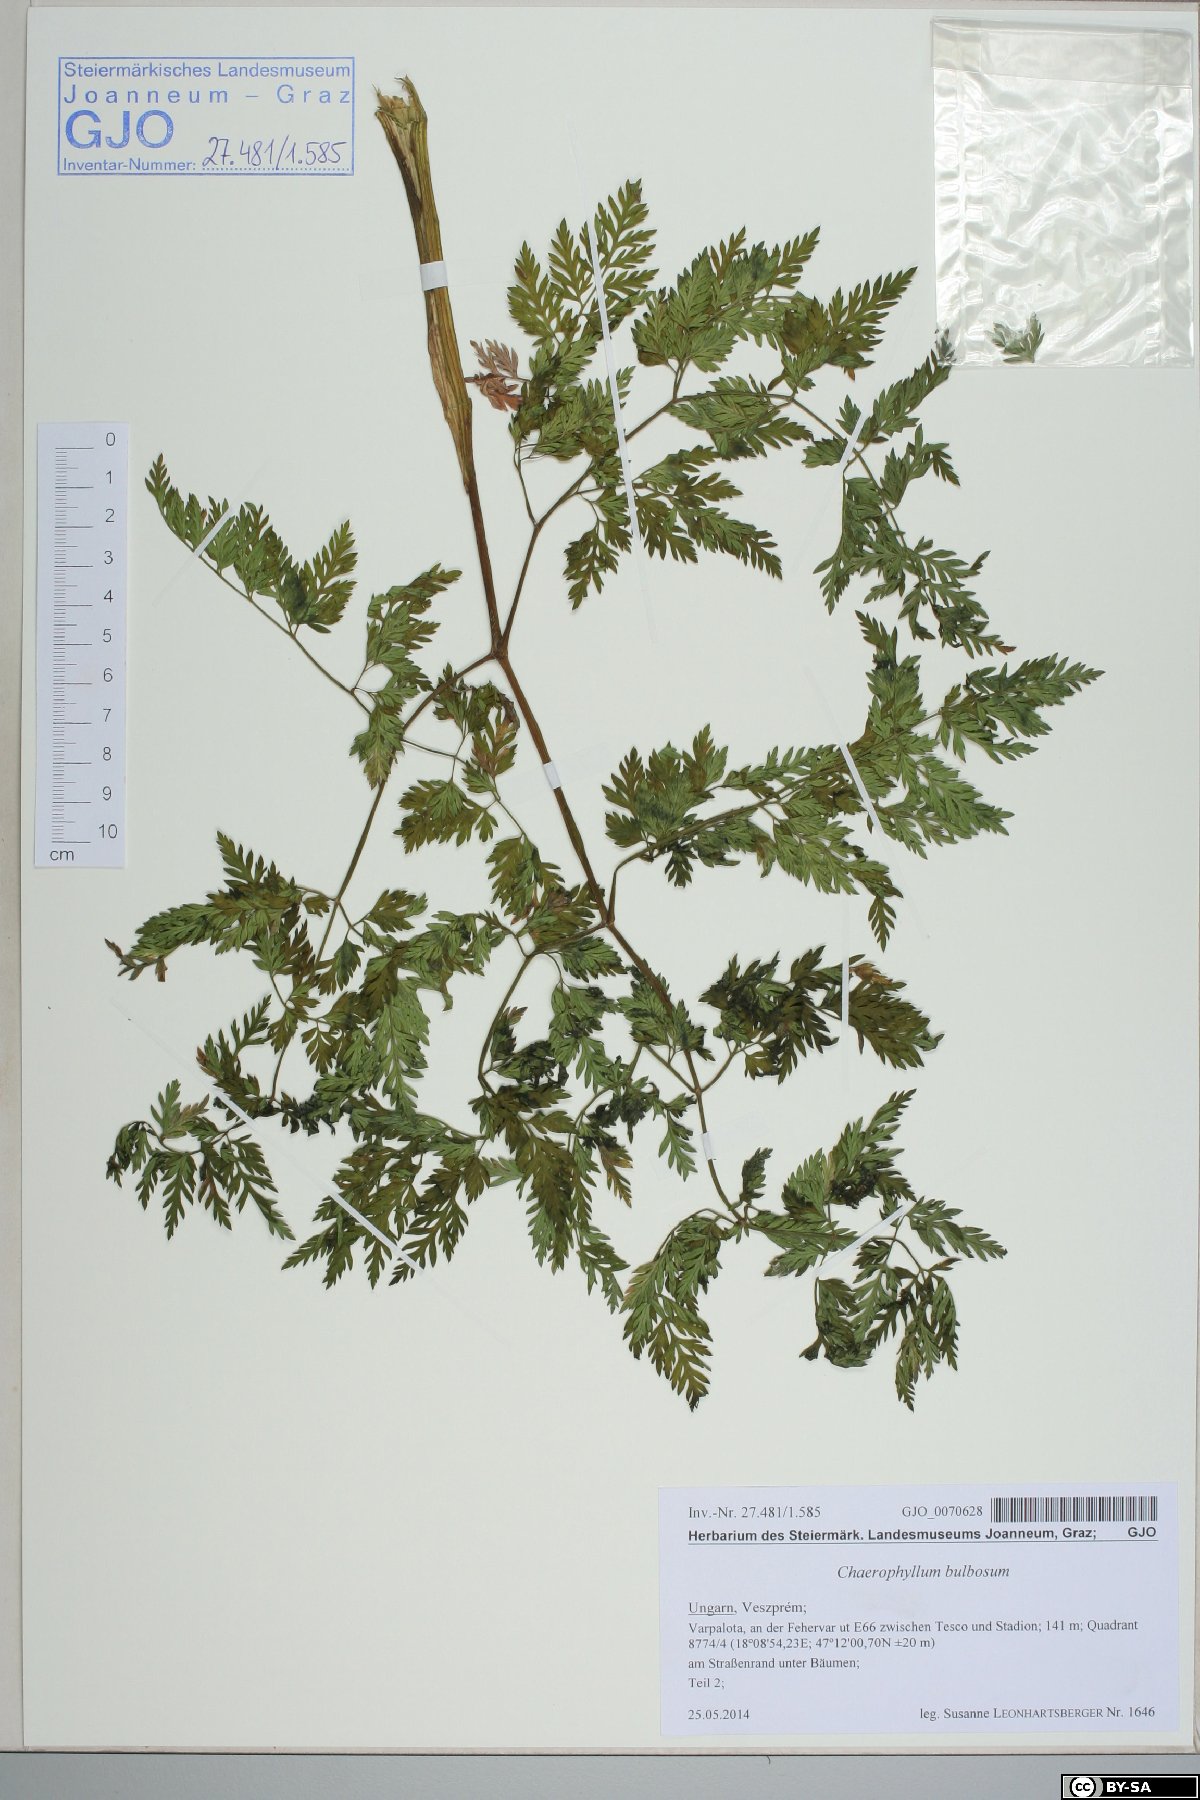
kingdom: Plantae
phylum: Tracheophyta
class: Magnoliopsida
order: Apiales
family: Apiaceae
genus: Chaerophyllum
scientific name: Chaerophyllum bulbosum
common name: Bulbous chervil
